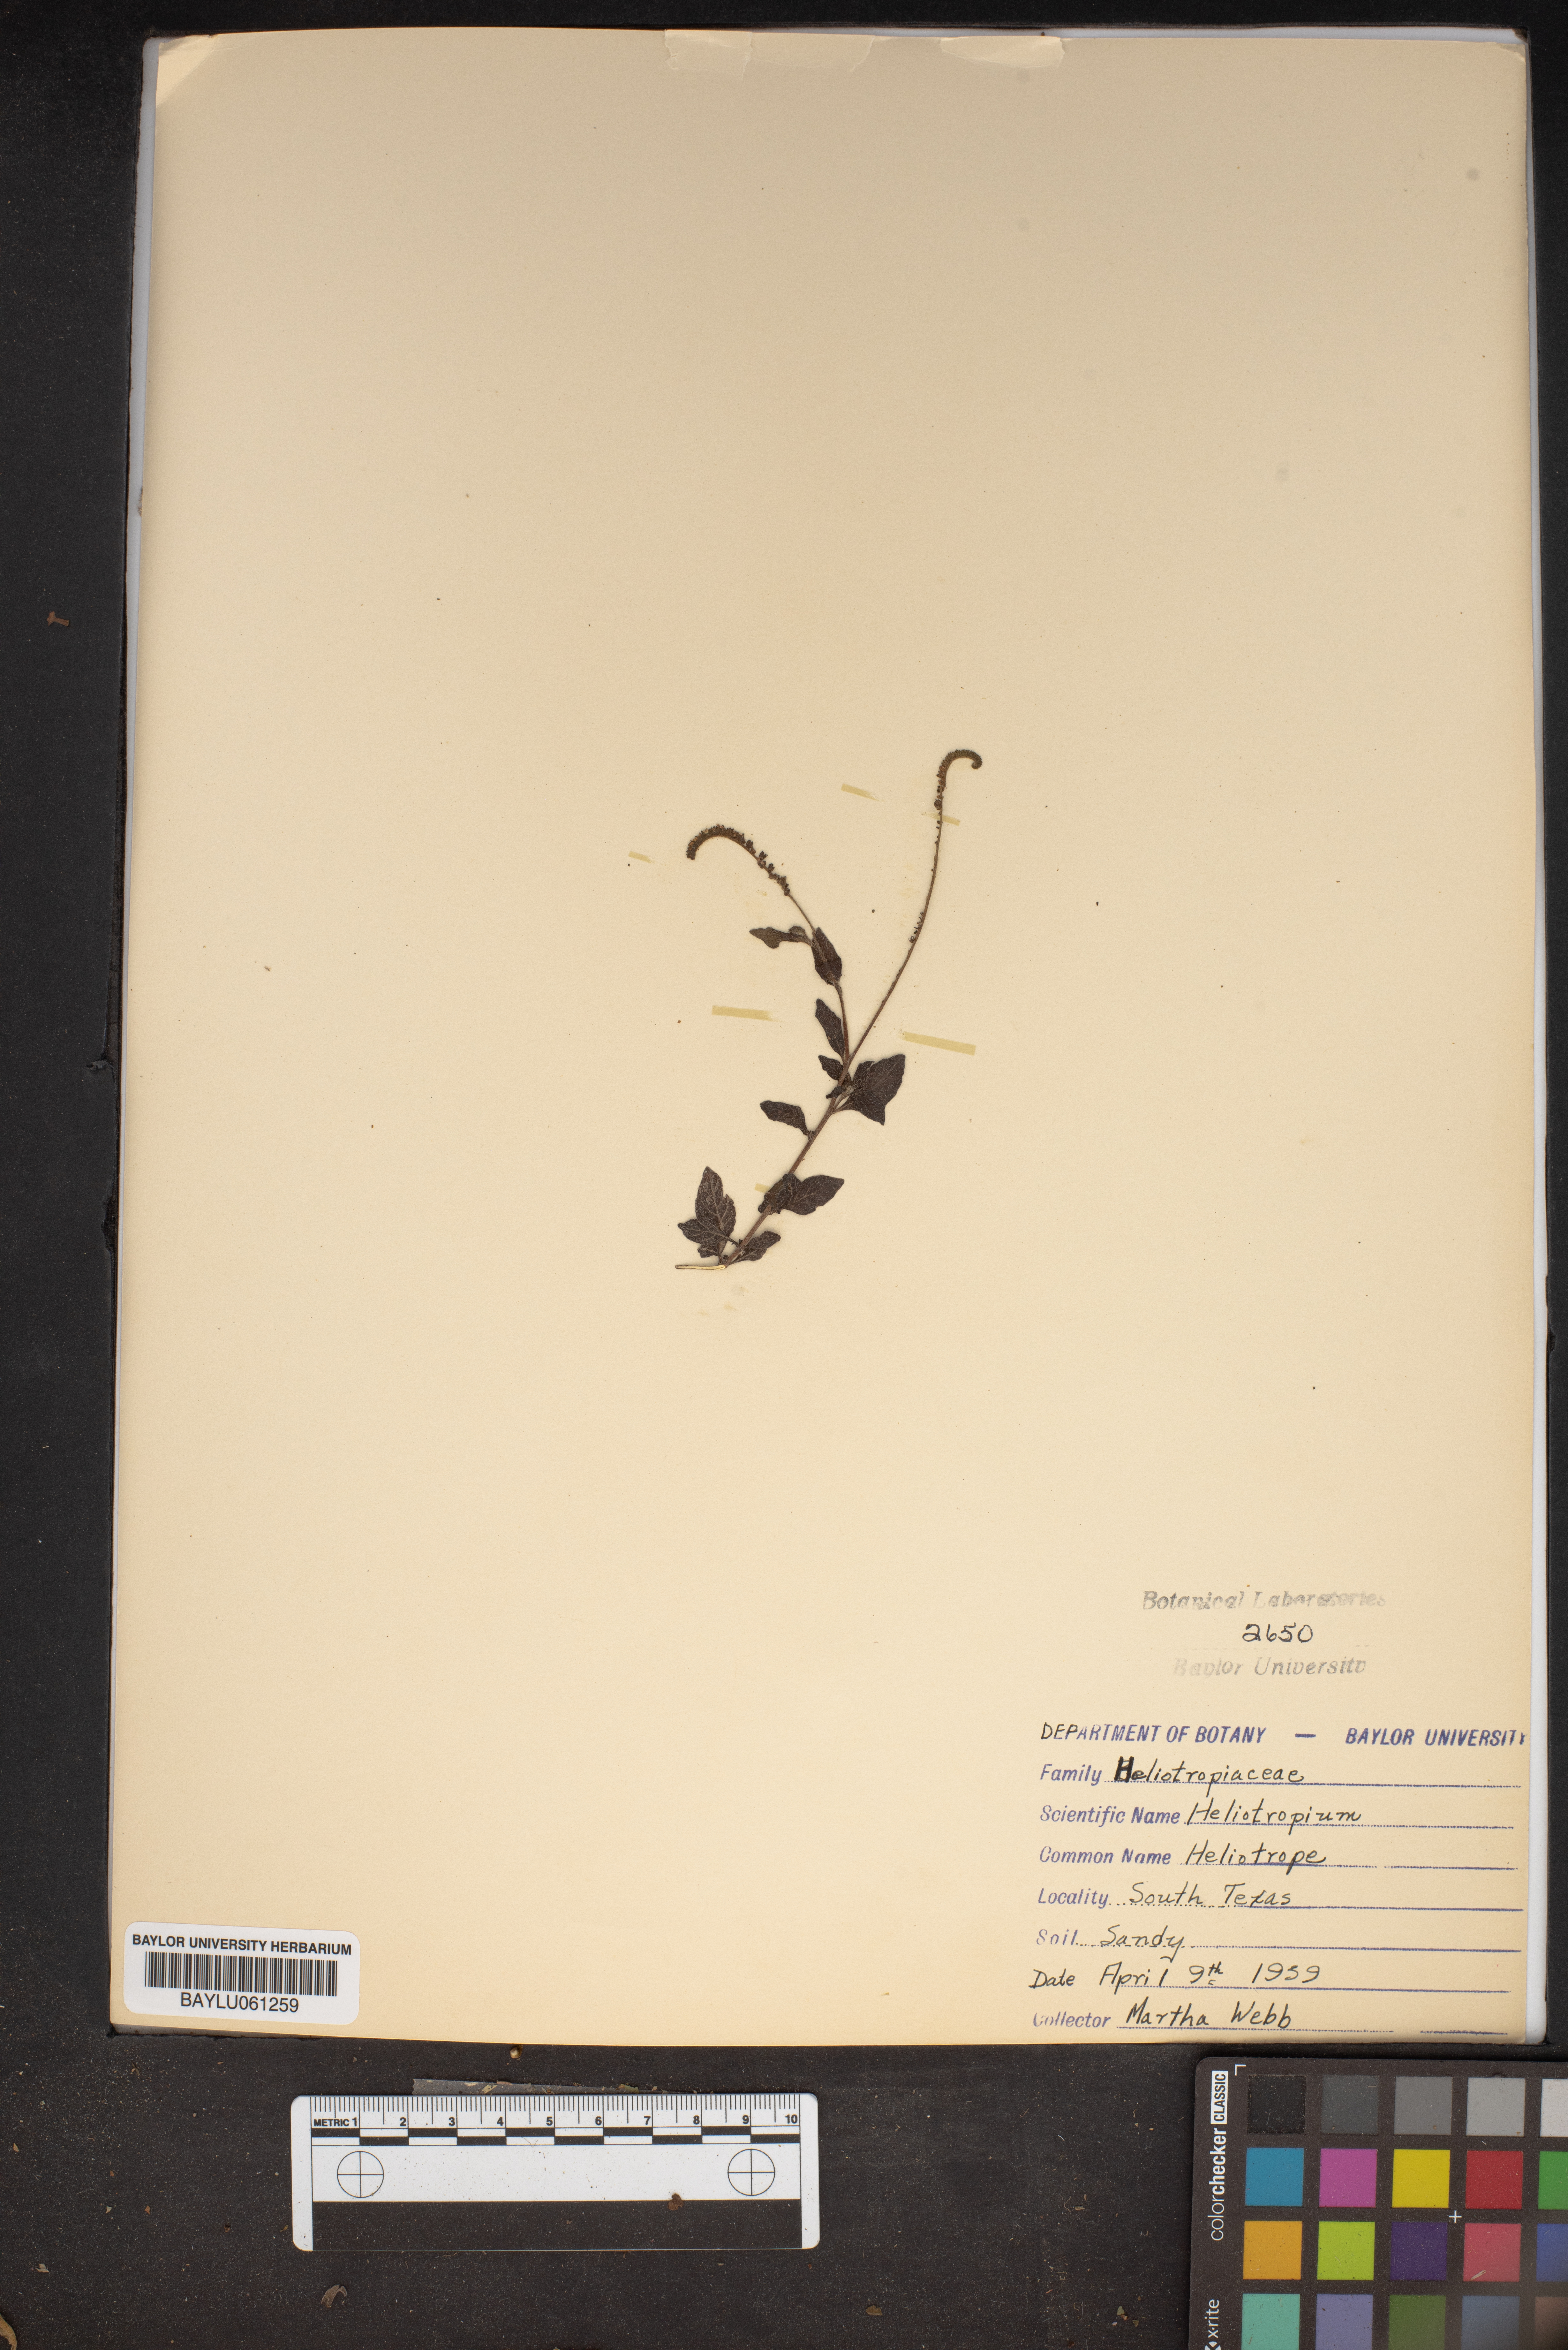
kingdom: Plantae
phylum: Tracheophyta
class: Magnoliopsida
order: Boraginales
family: Heliotropiaceae
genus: Heliotropium
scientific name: Heliotropium
